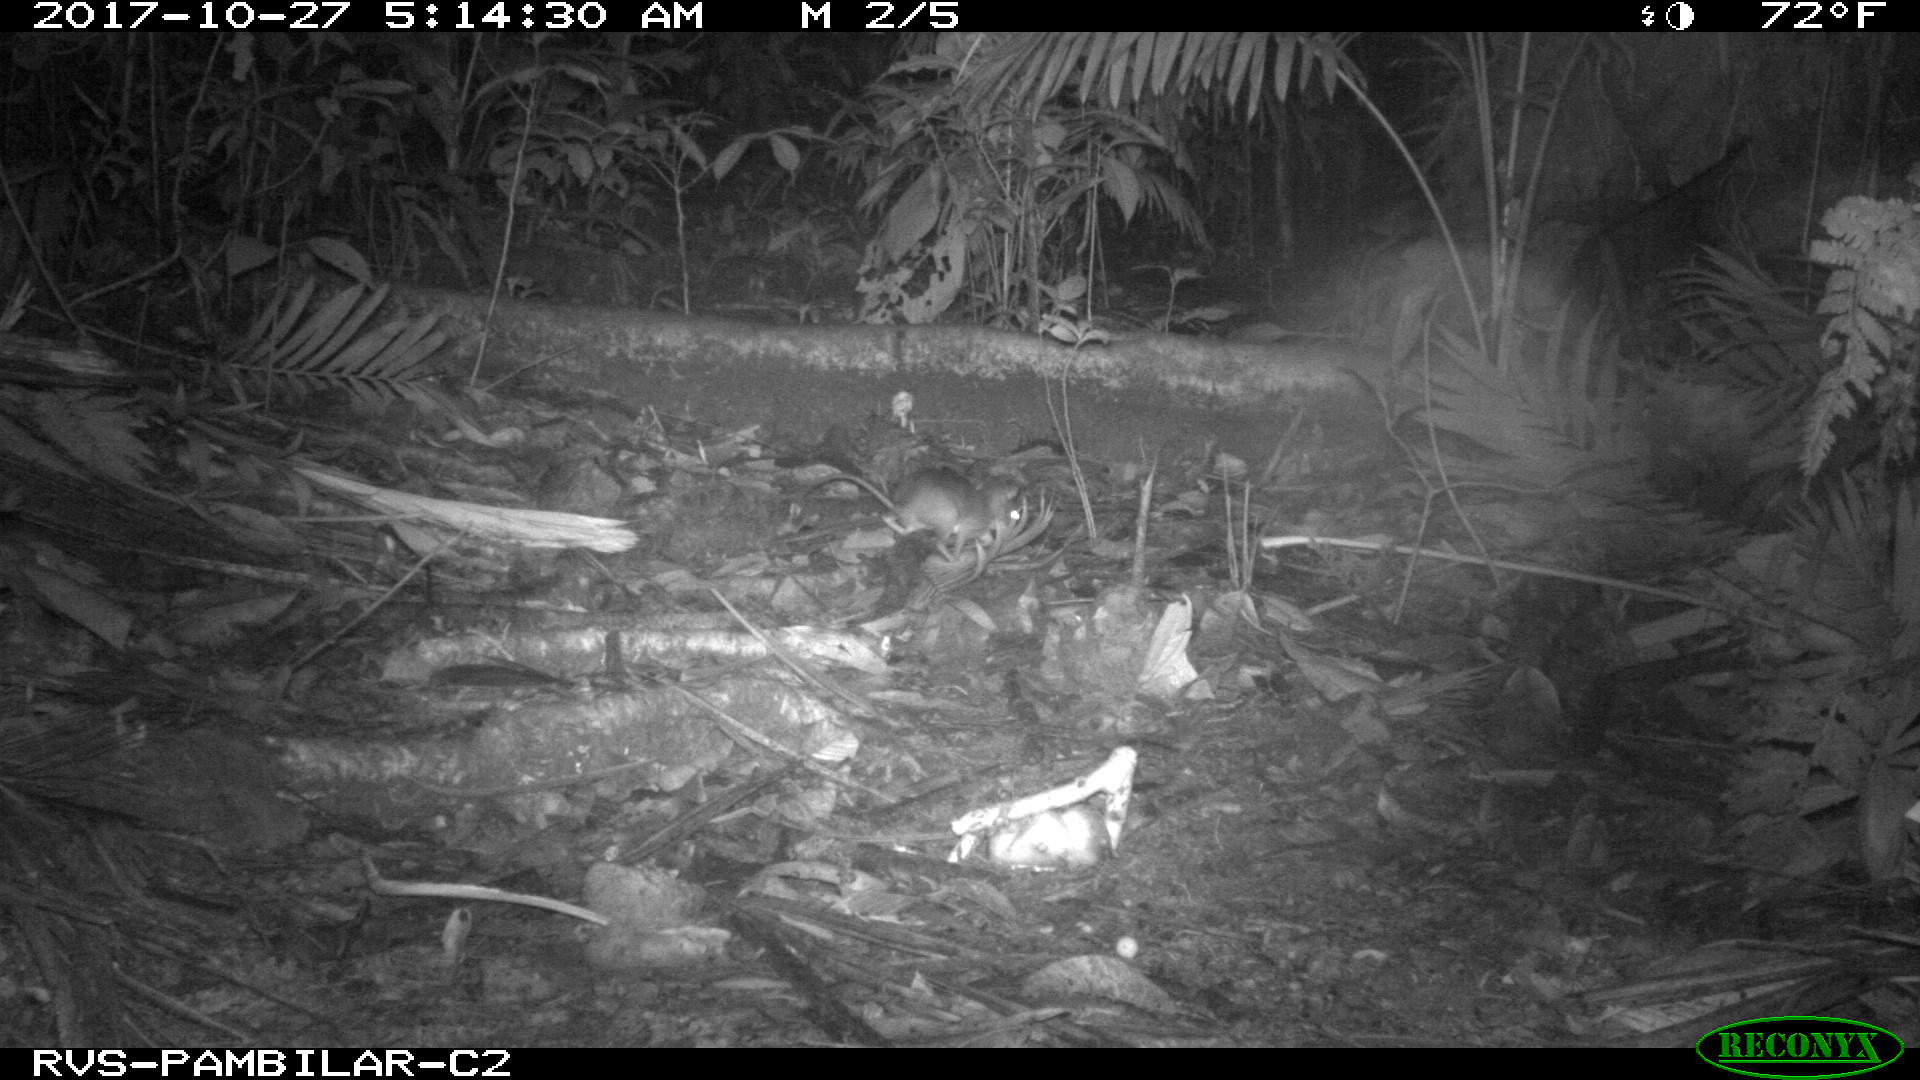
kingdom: Animalia
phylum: Chordata
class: Mammalia
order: Rodentia
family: Echimyidae
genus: Proechimys
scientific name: Proechimys
